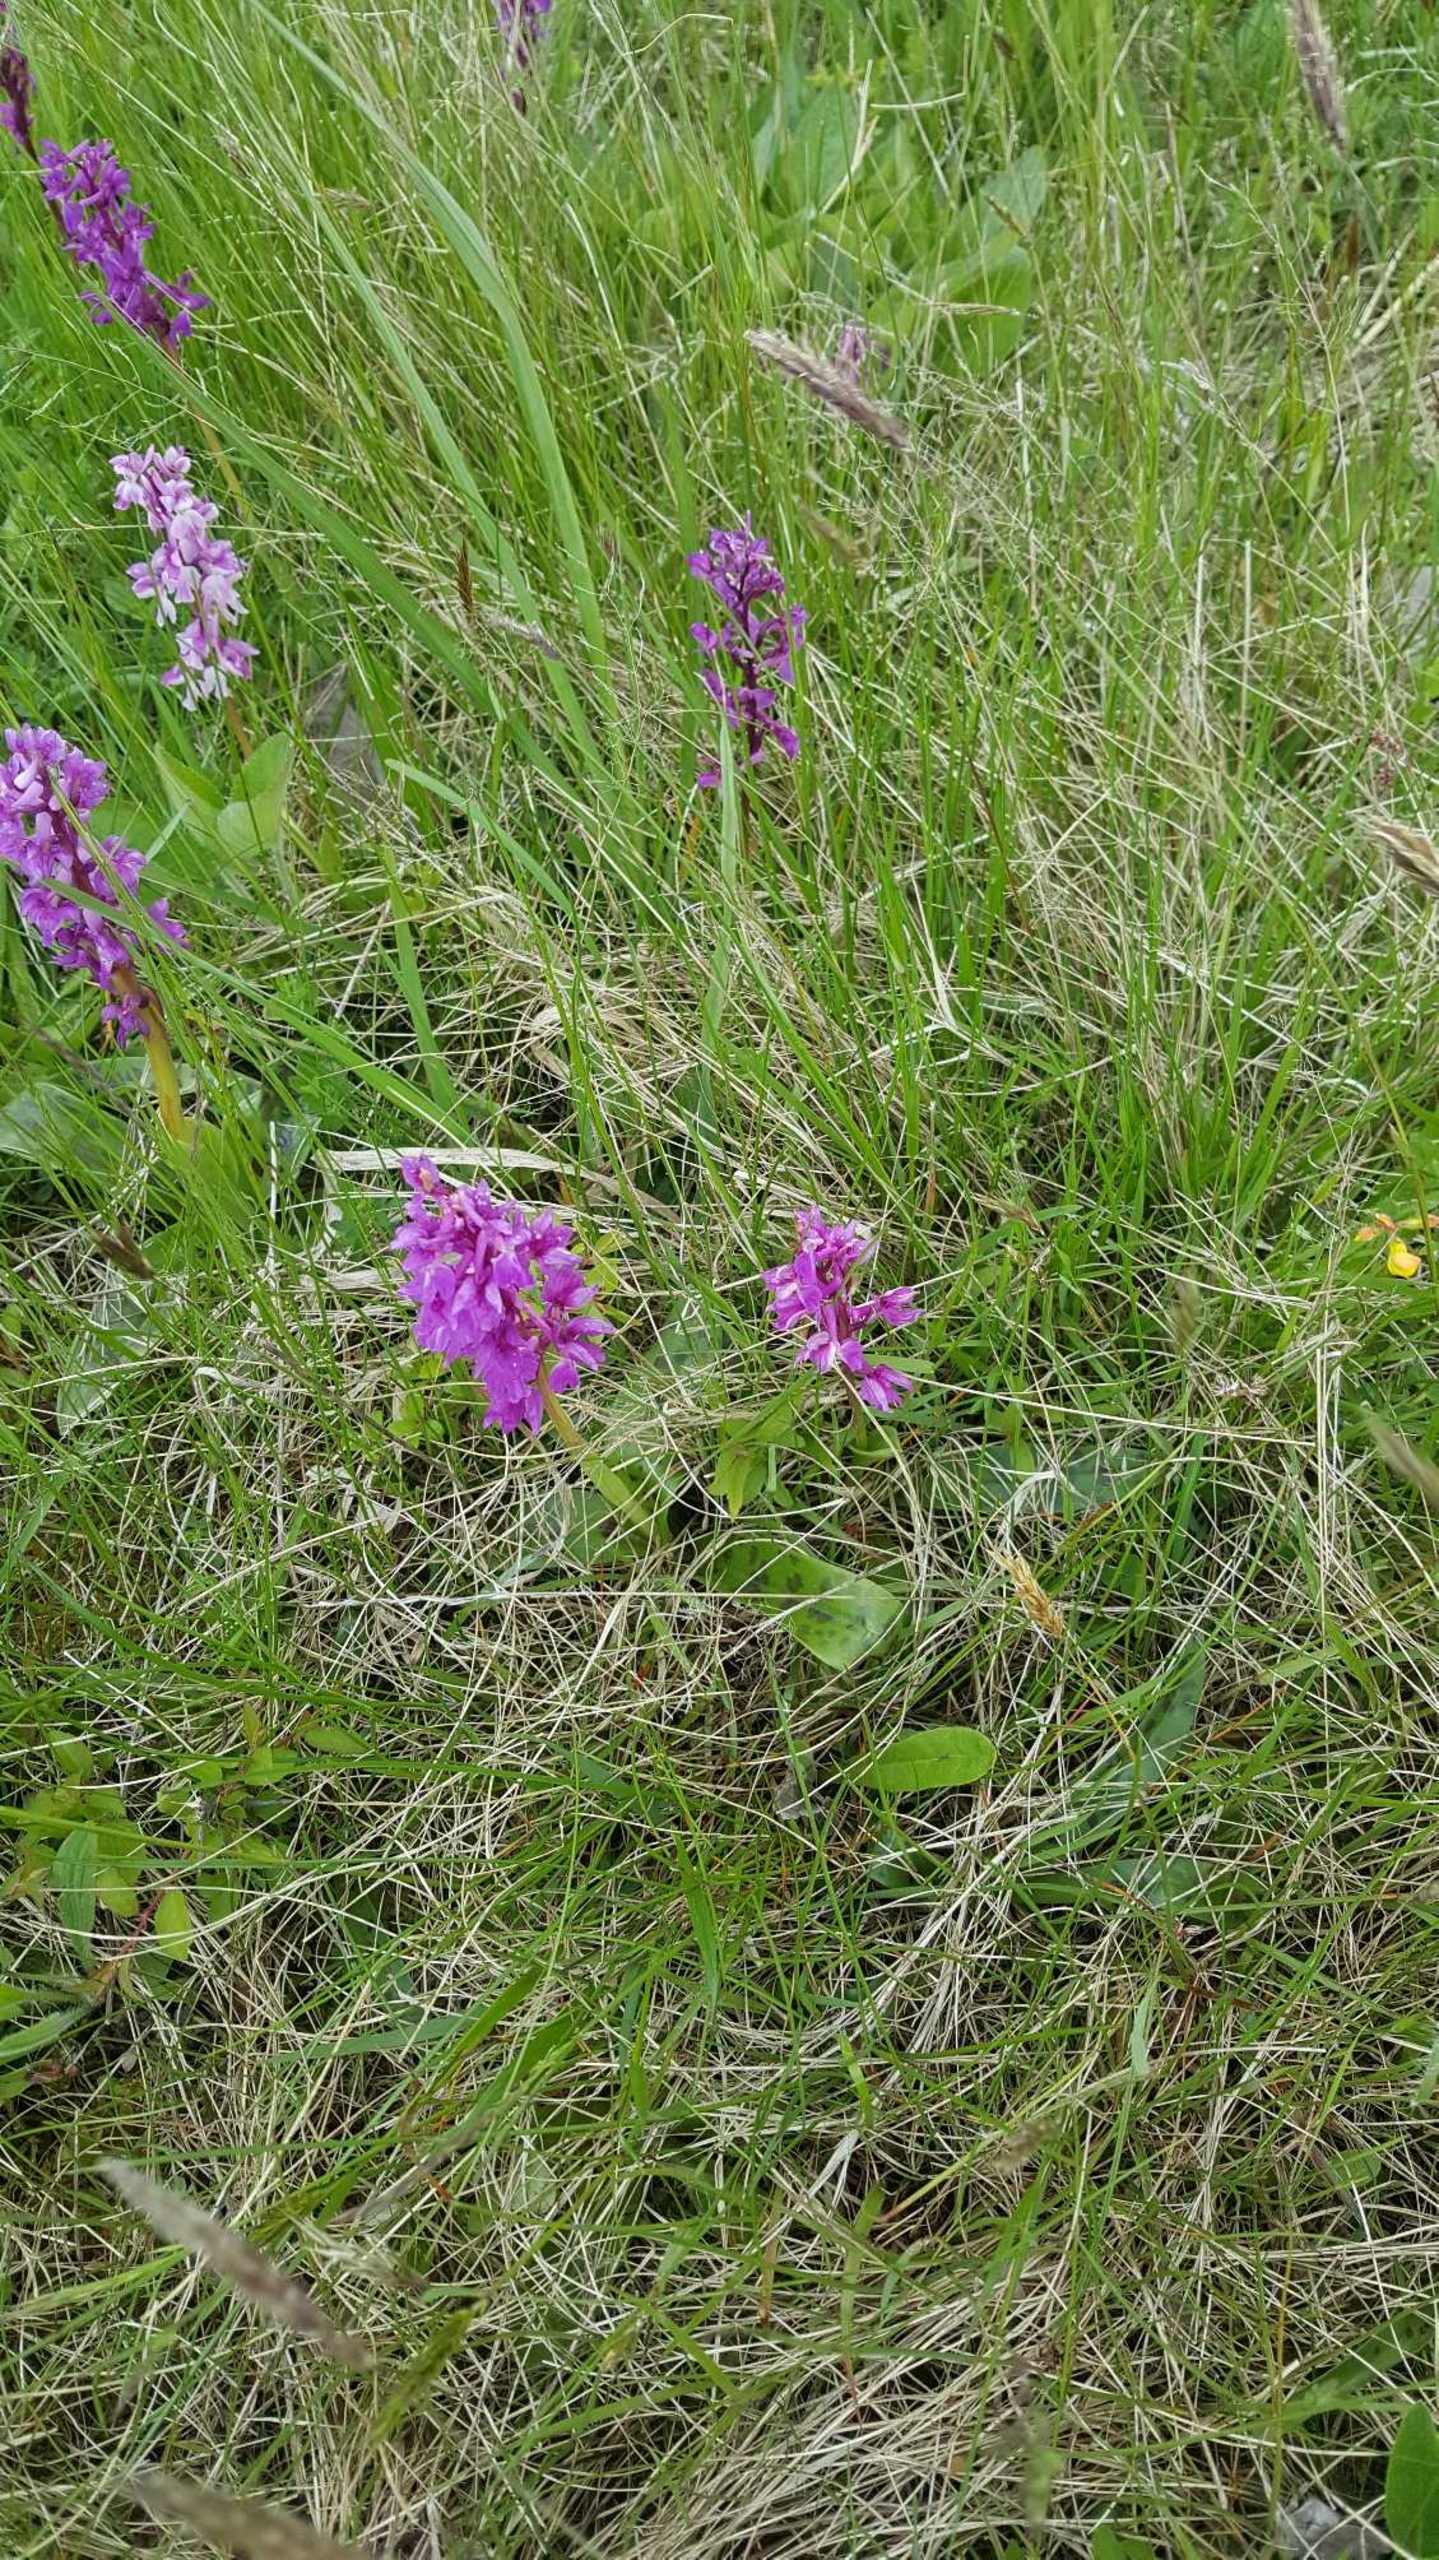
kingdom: Plantae
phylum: Tracheophyta
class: Liliopsida
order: Asparagales
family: Orchidaceae
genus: Orchis
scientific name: Orchis mascula
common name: Tyndakset gøgeurt
